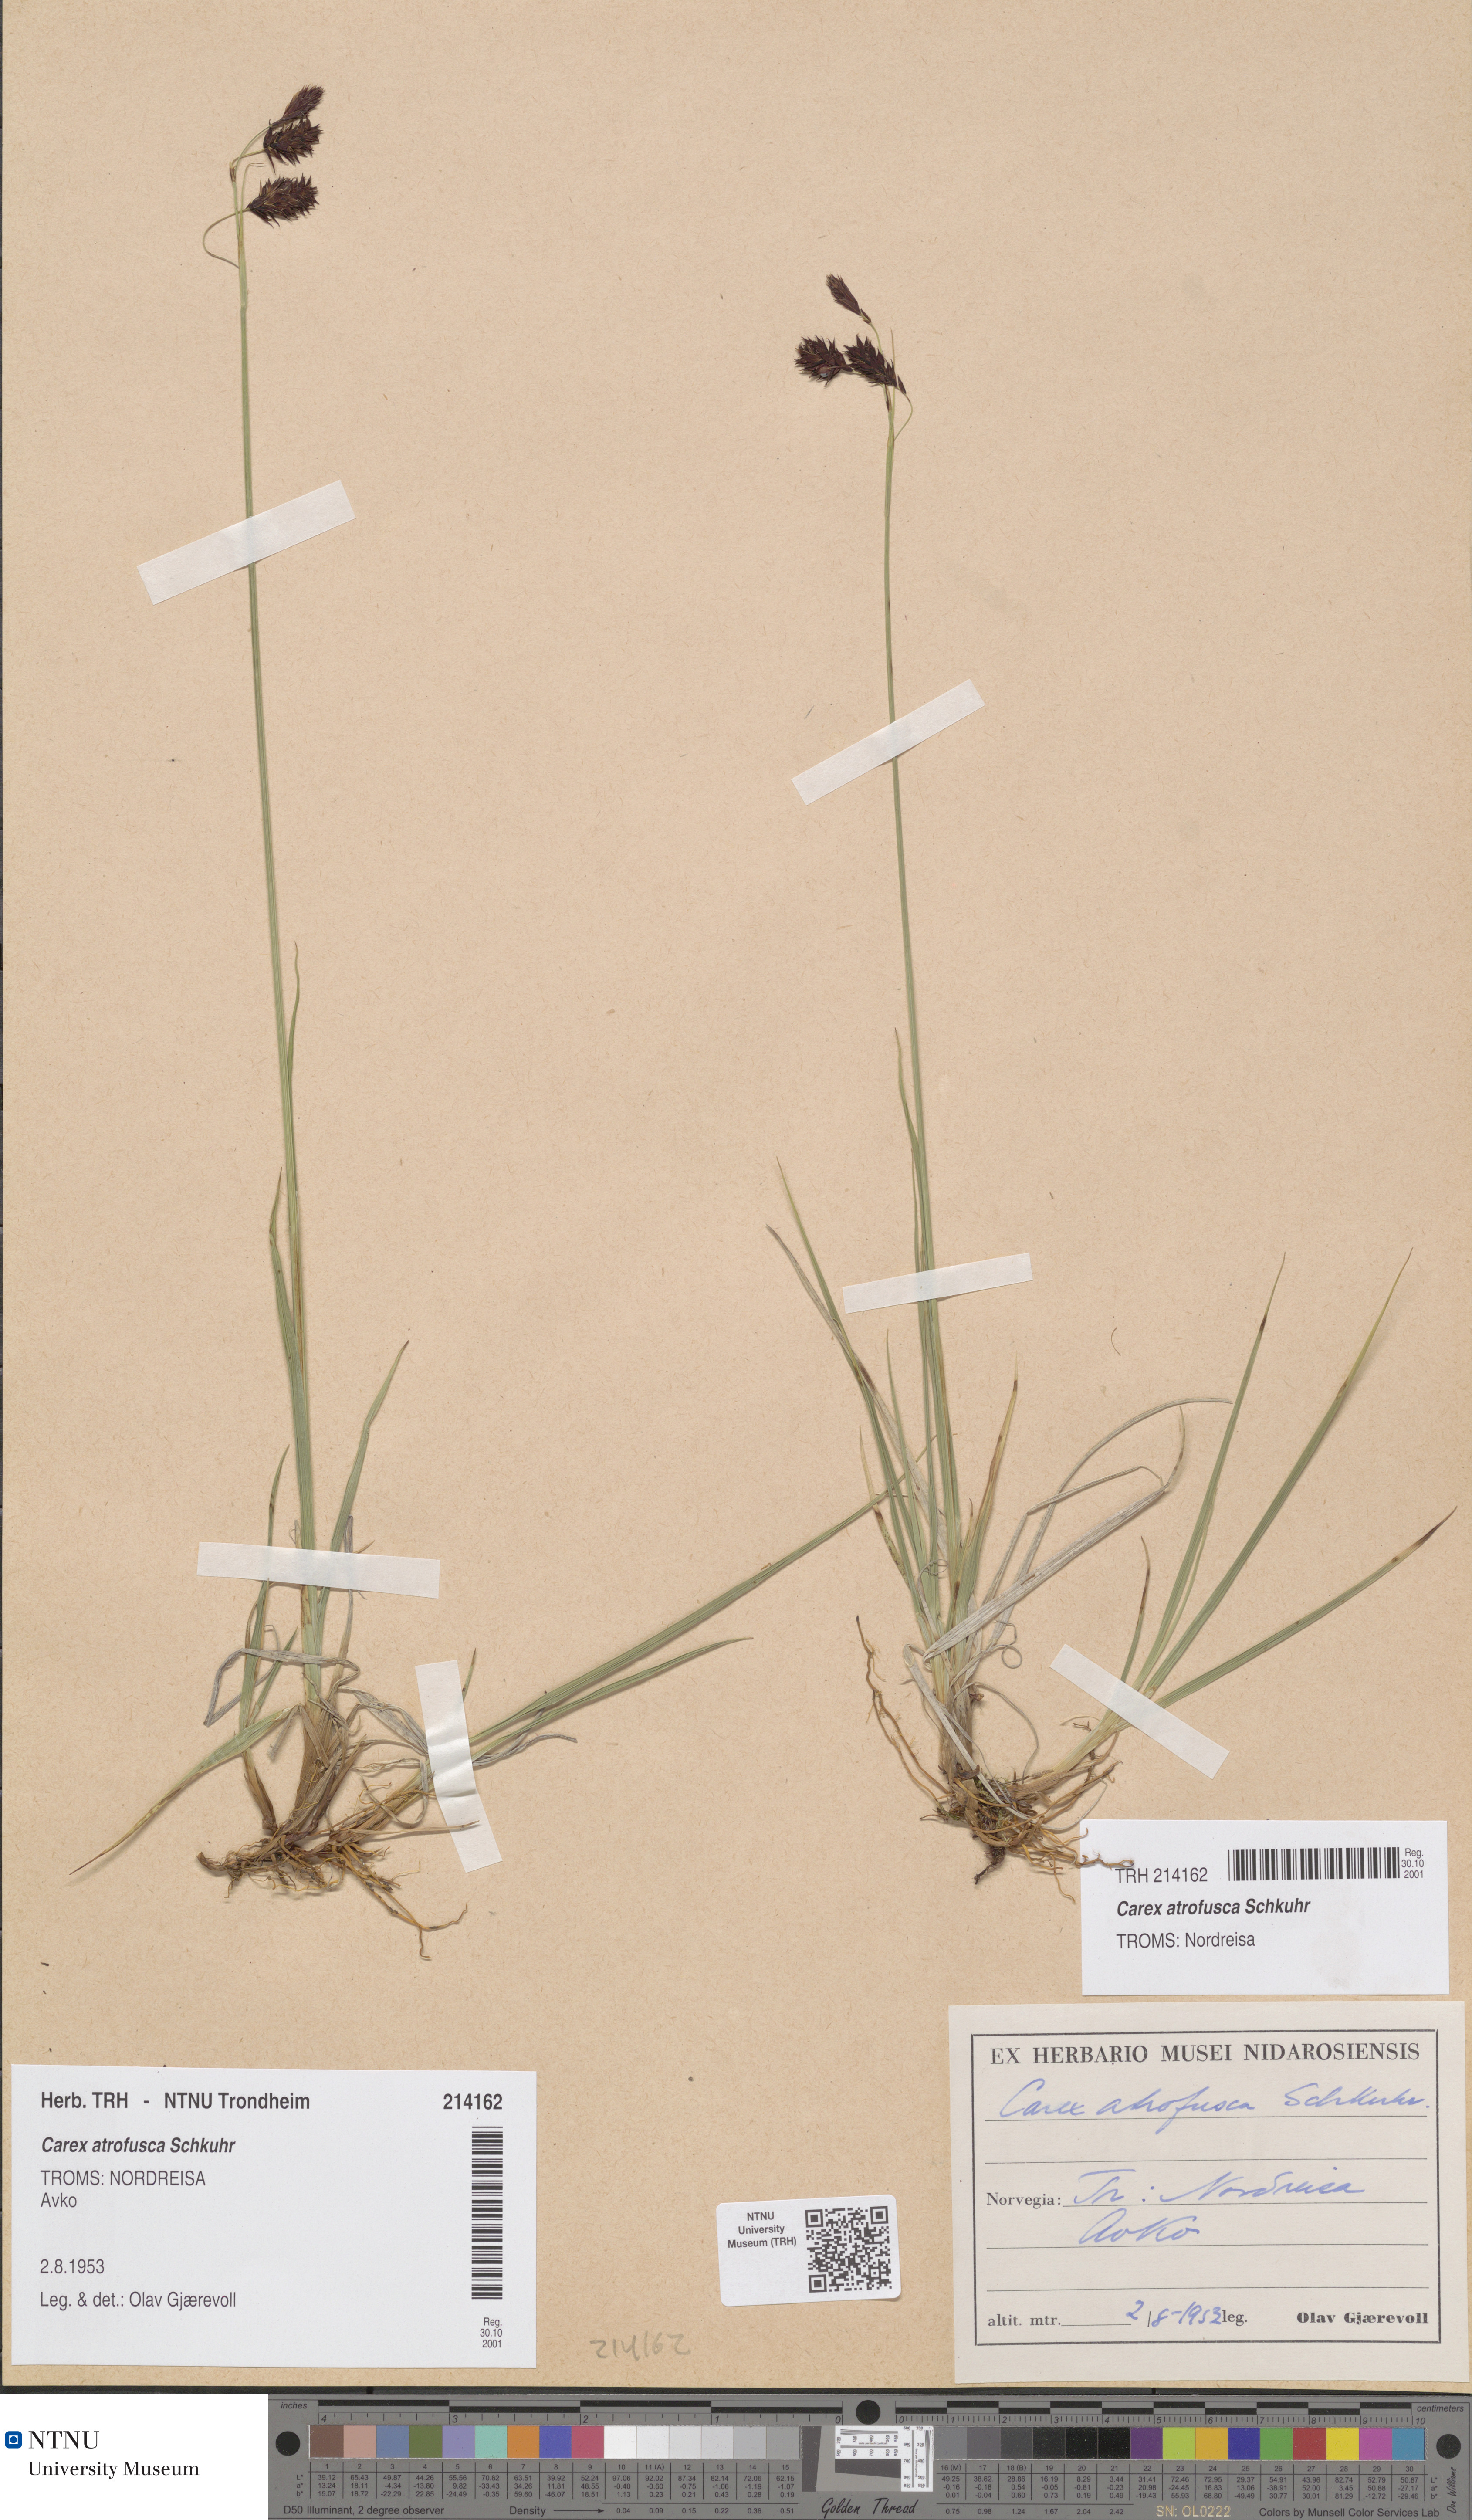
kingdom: Plantae
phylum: Tracheophyta
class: Liliopsida
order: Poales
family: Cyperaceae
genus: Carex
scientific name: Carex atrofusca
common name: Scorched alpine-sedge
